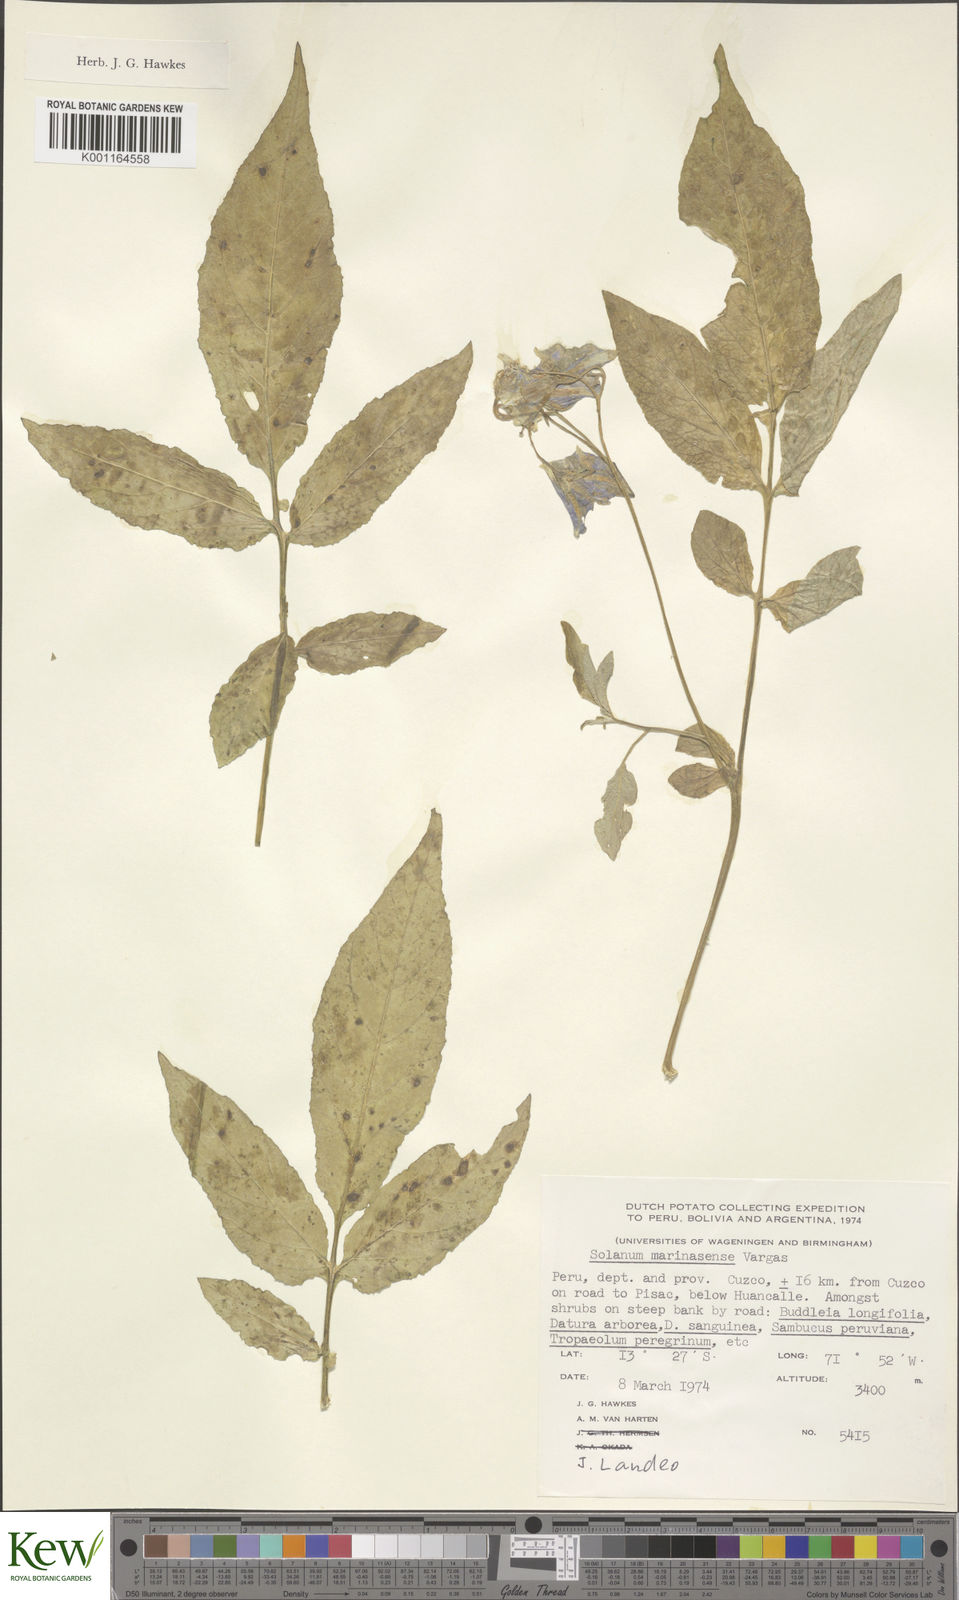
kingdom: Plantae
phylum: Tracheophyta
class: Magnoliopsida
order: Solanales
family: Solanaceae
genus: Solanum
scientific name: Solanum candolleanum
